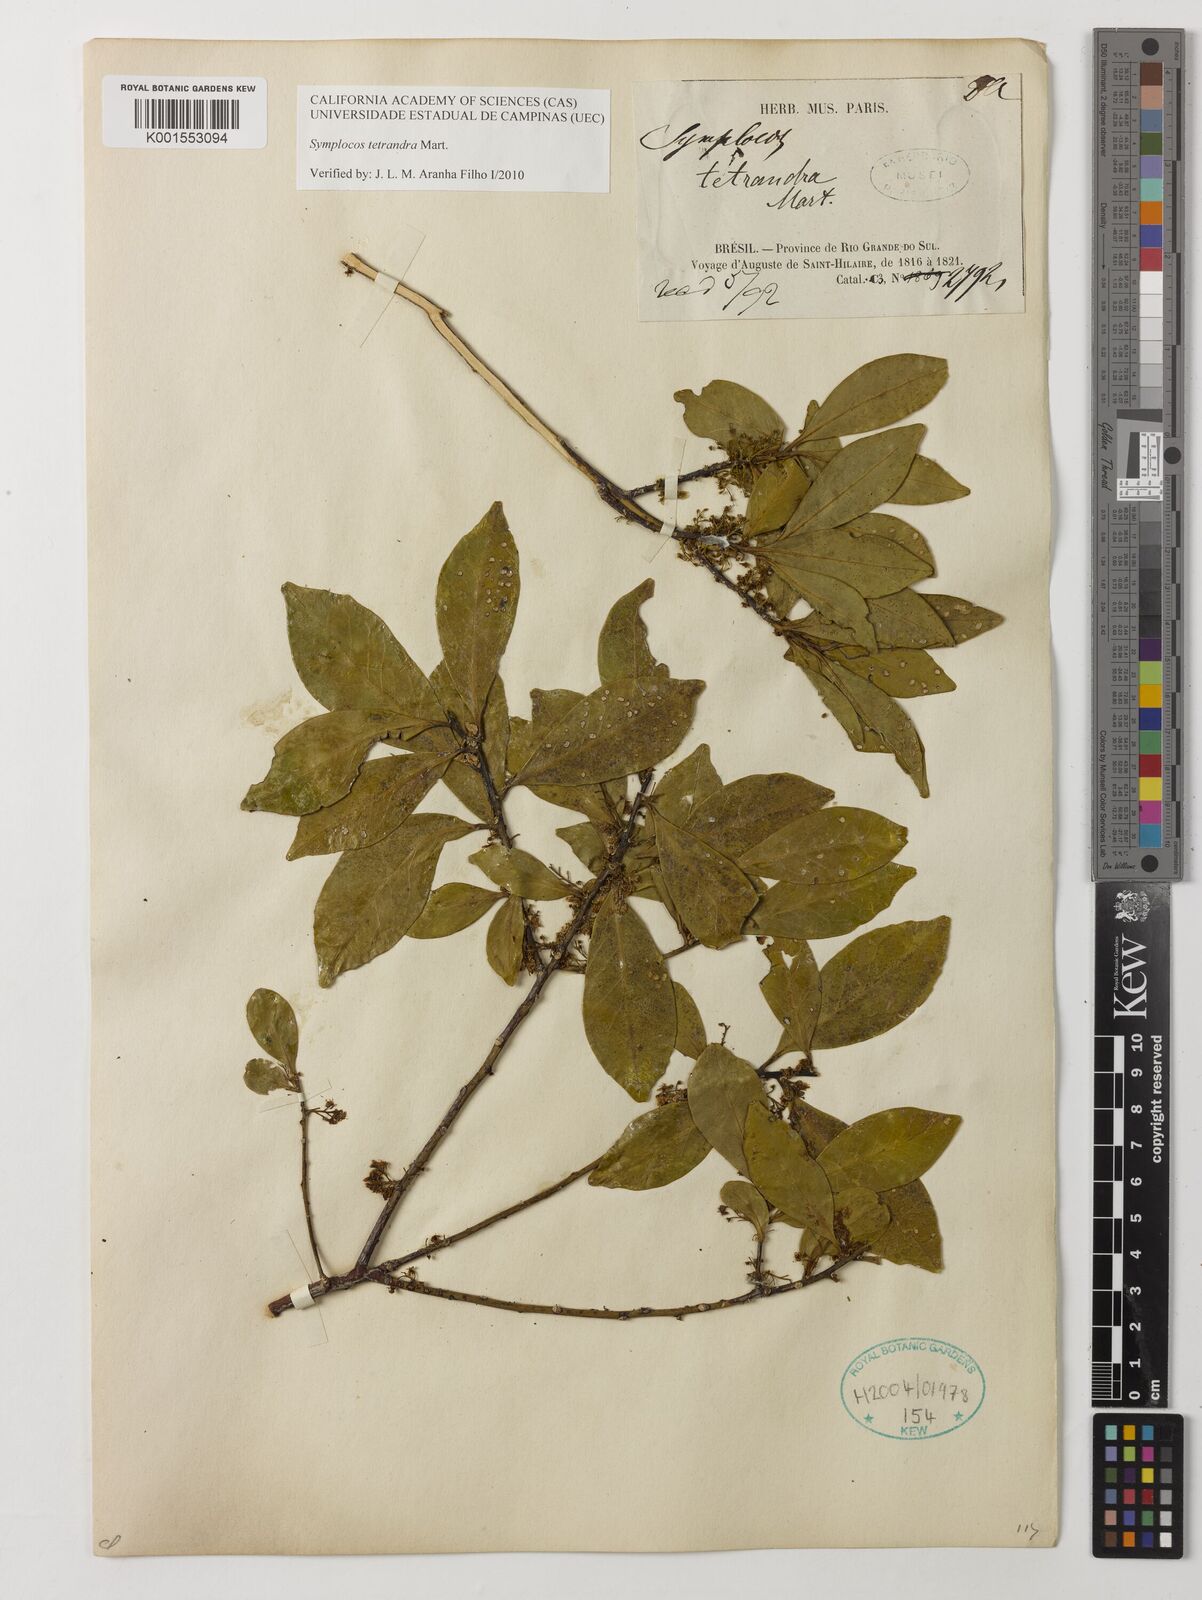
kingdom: Plantae
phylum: Tracheophyta
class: Magnoliopsida
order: Ericales
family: Symplocaceae
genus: Symplocos
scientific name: Symplocos tetrandra
